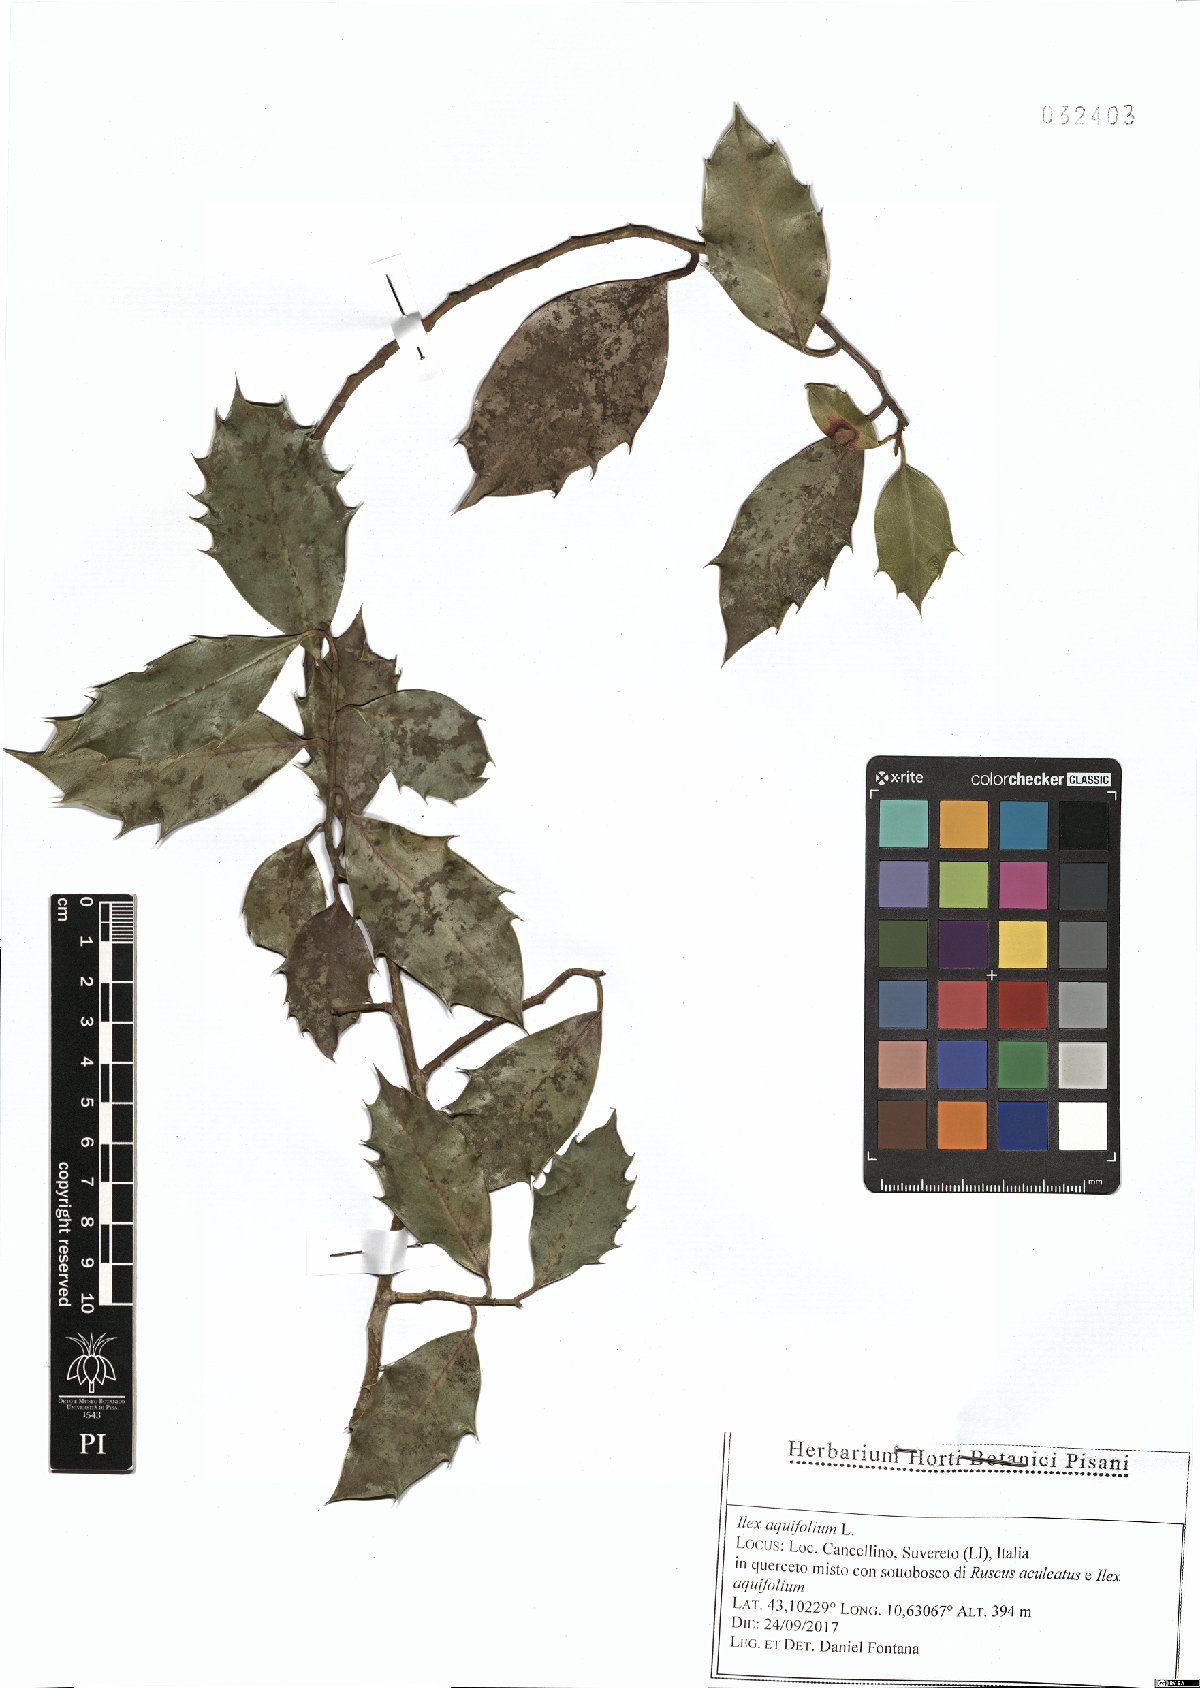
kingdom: Plantae
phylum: Tracheophyta
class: Magnoliopsida
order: Aquifoliales
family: Aquifoliaceae
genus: Ilex
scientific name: Ilex aquifolium
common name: English holly
